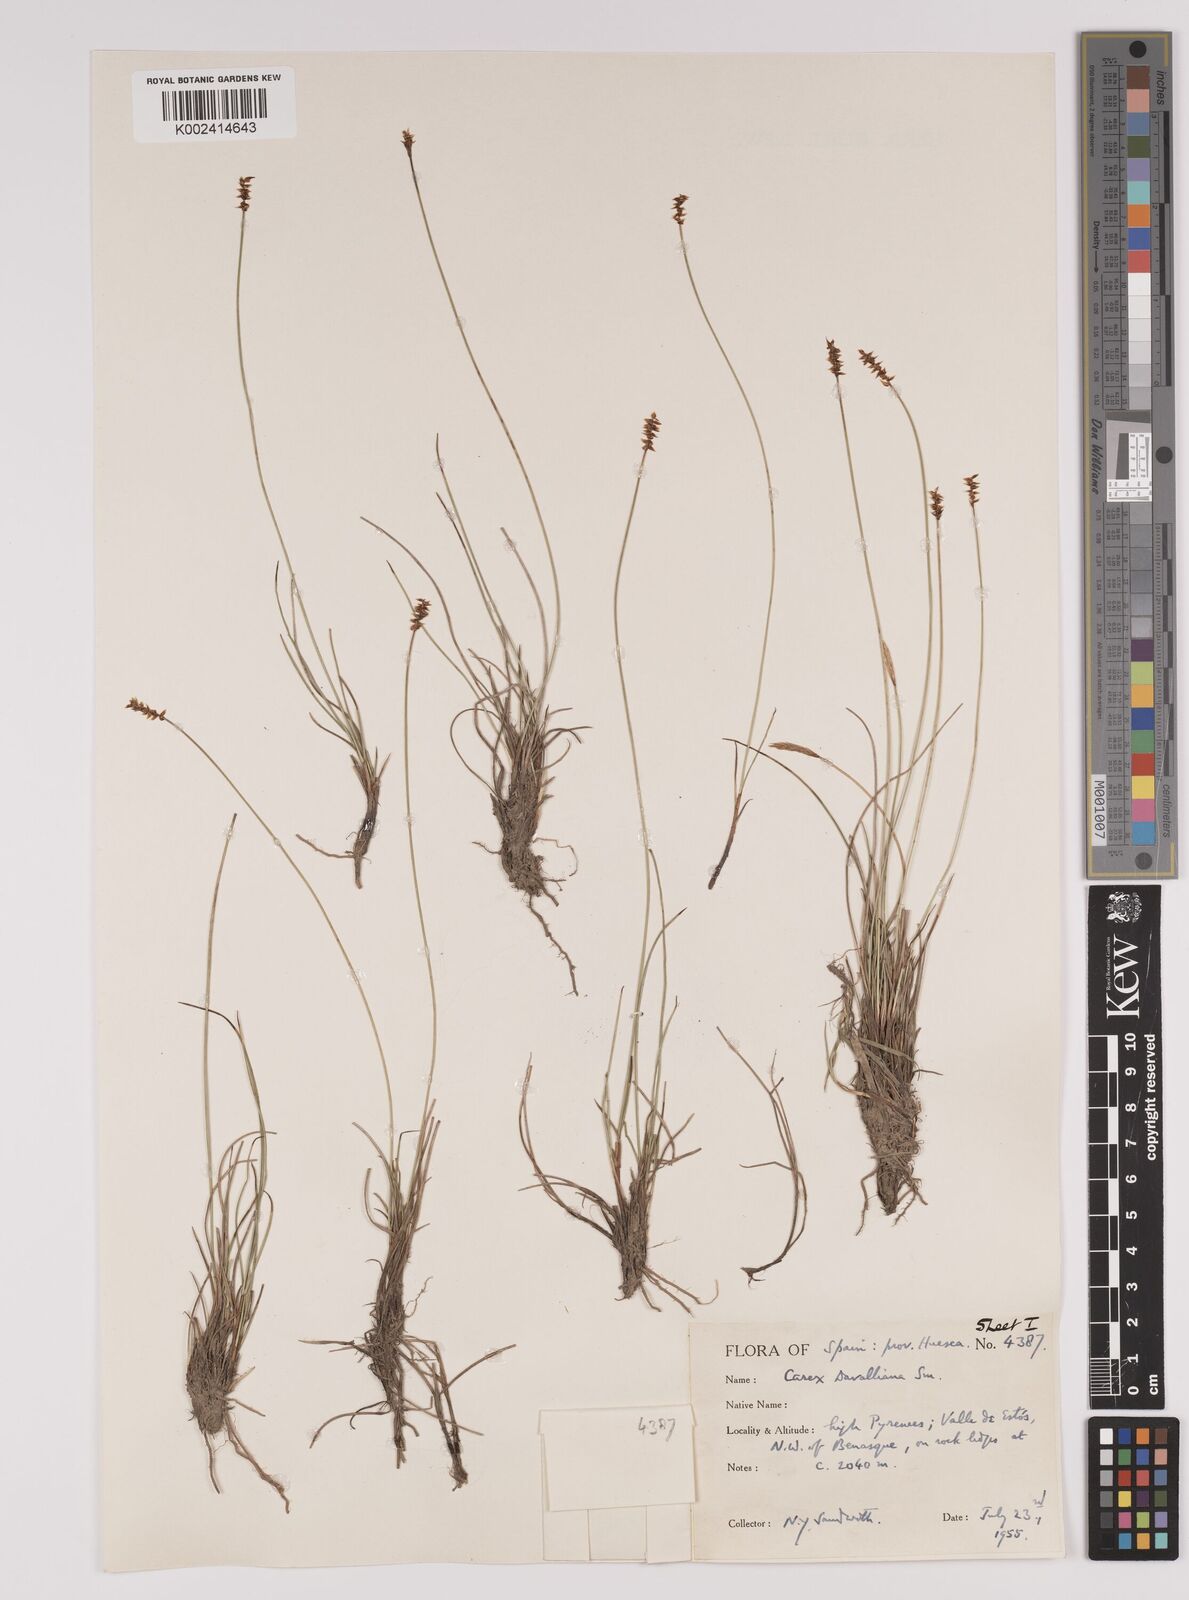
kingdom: Plantae
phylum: Tracheophyta
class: Liliopsida
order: Poales
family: Cyperaceae
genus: Carex
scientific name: Carex davalliana
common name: Davall's sedge
